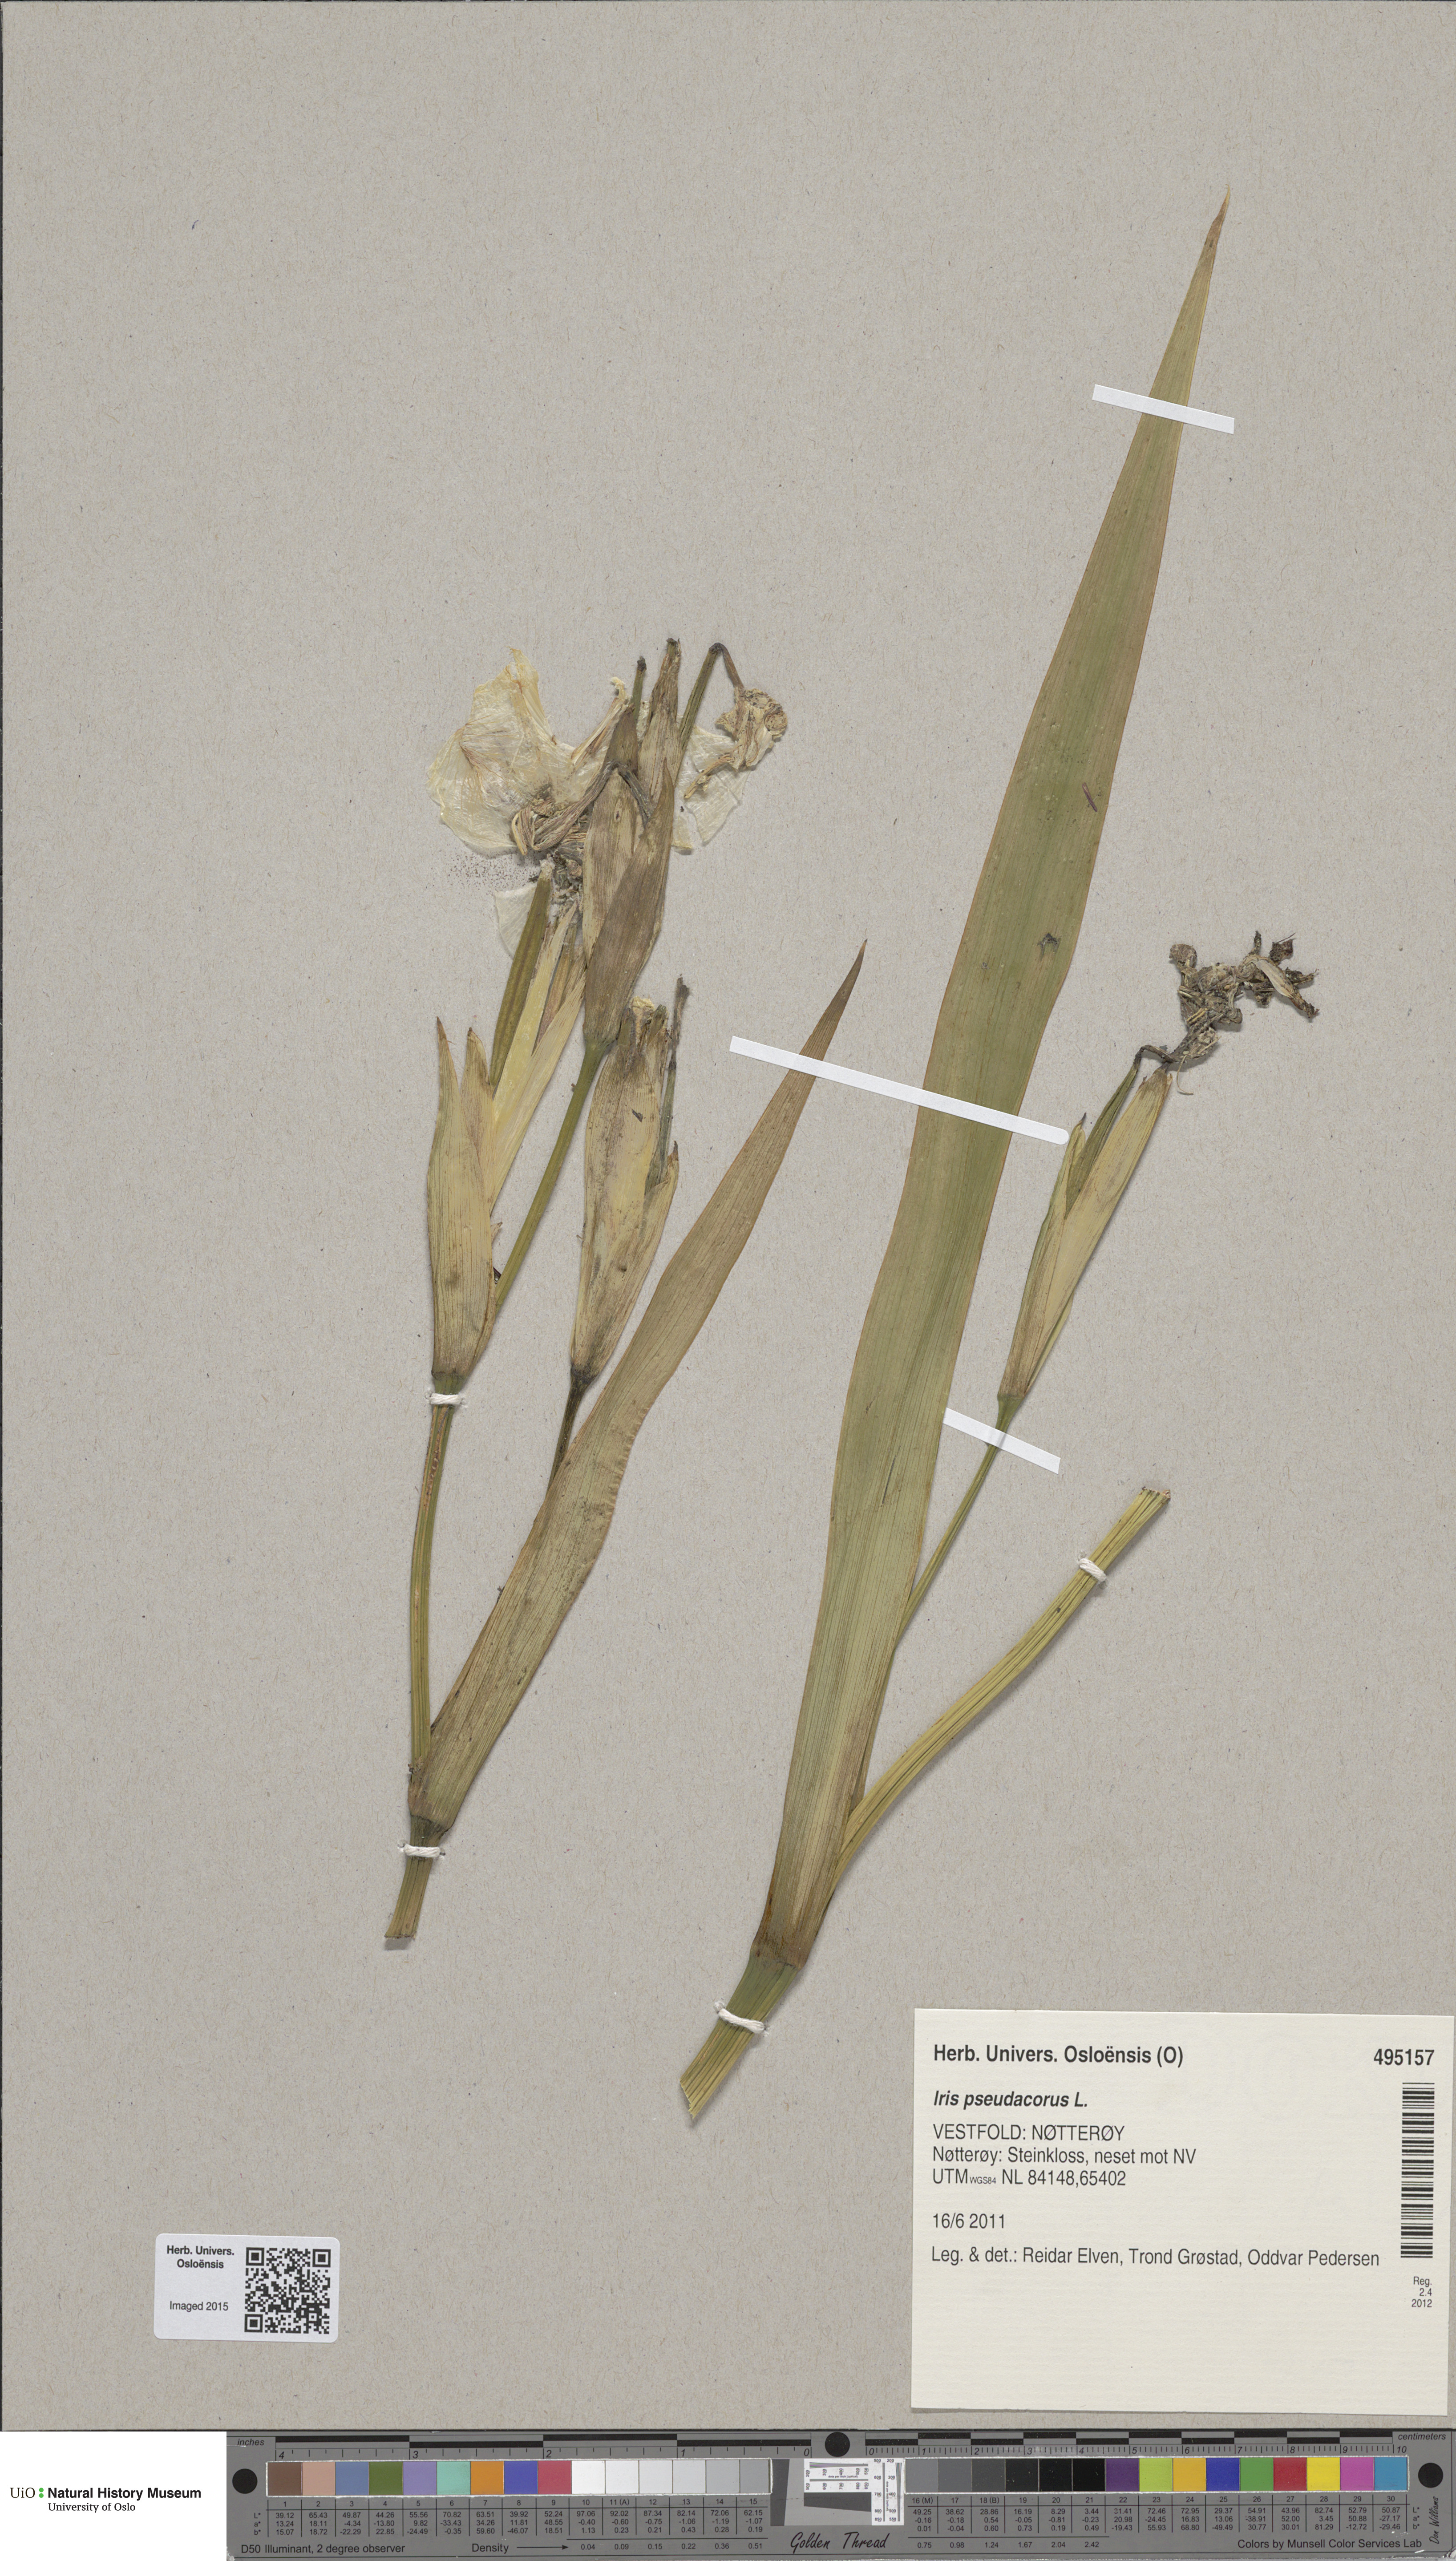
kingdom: Plantae
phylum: Tracheophyta
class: Liliopsida
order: Asparagales
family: Iridaceae
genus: Iris
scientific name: Iris pseudacorus
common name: Yellow flag
